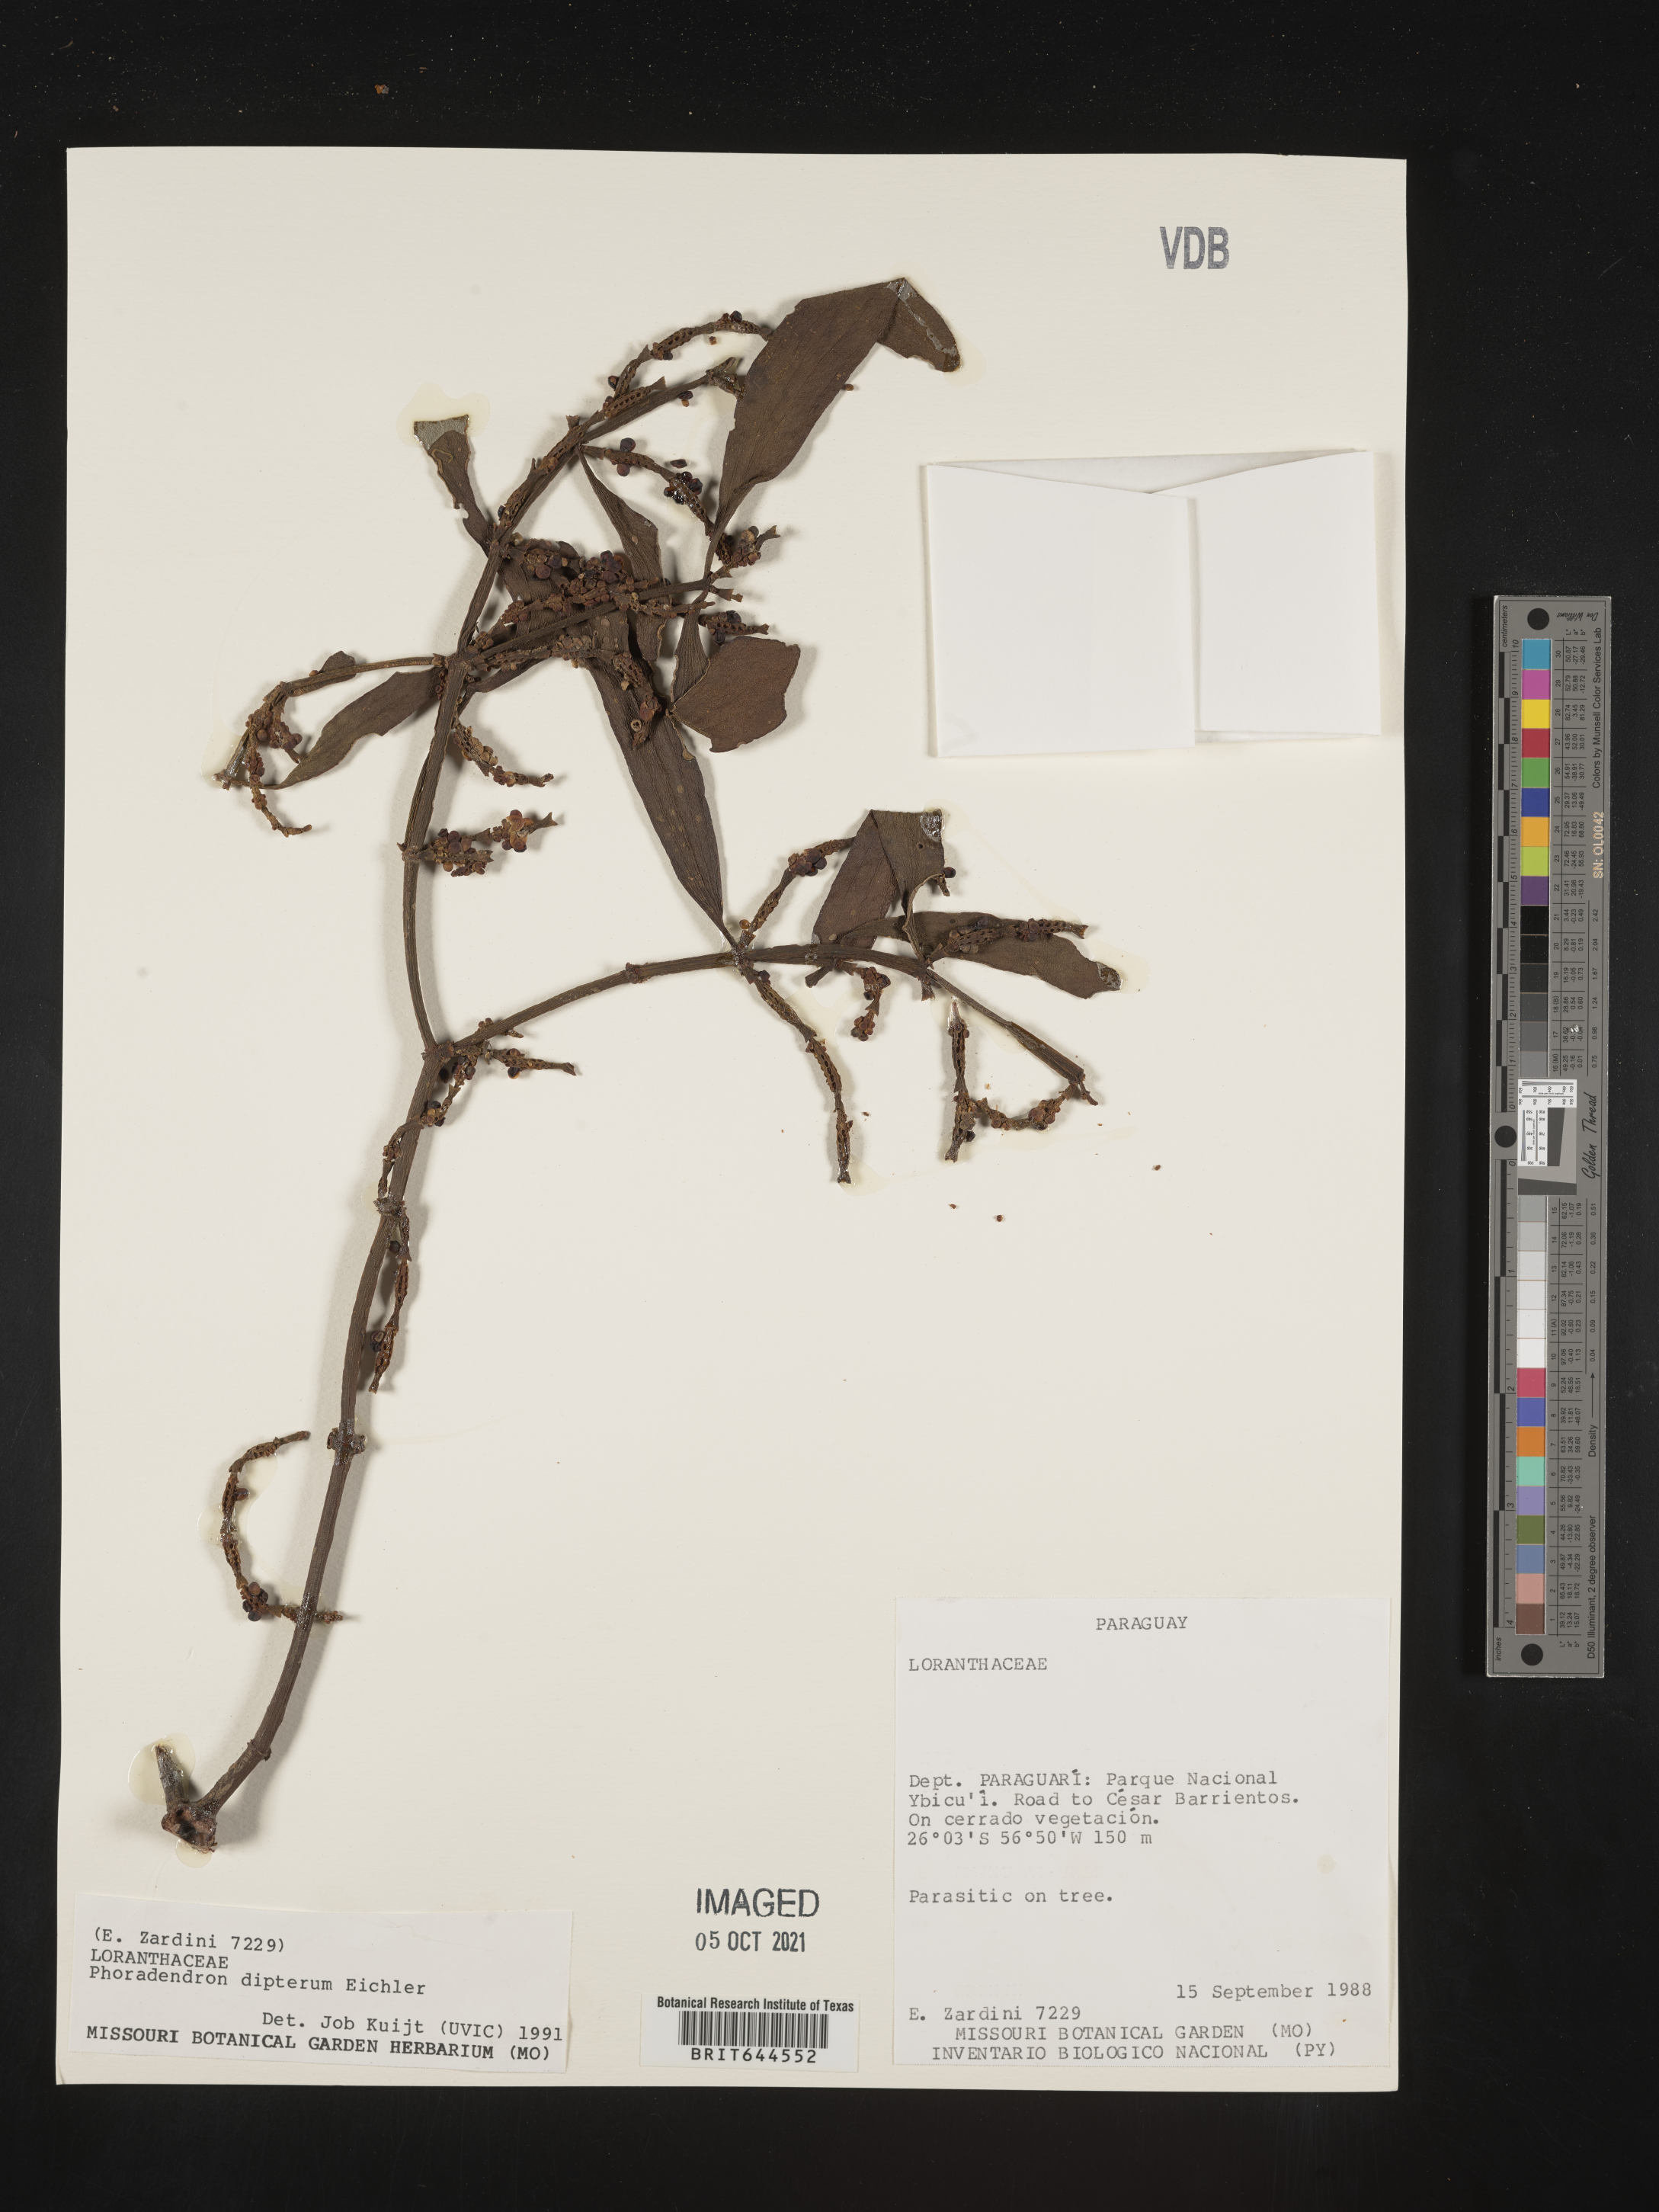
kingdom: Plantae
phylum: Tracheophyta
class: Magnoliopsida
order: Santalales
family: Viscaceae
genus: Phoradendron
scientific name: Phoradendron
